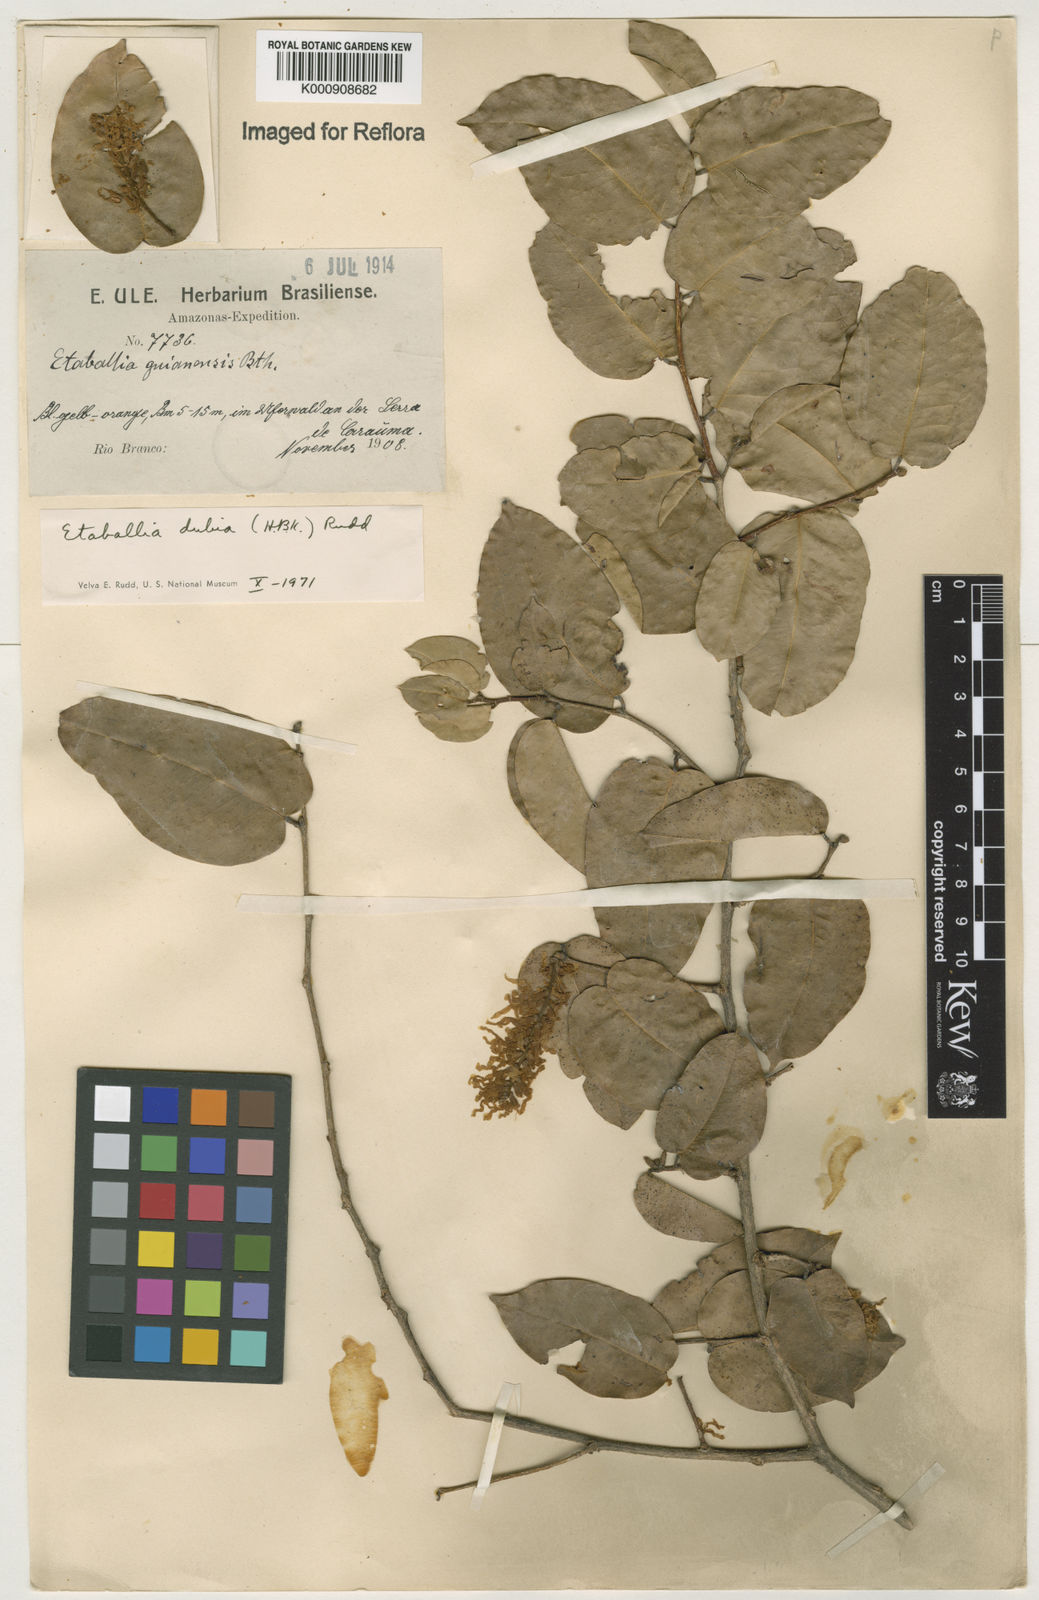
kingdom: Plantae
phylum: Tracheophyta
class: Magnoliopsida
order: Fabales
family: Fabaceae
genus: Pterocarpus
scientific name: Pterocarpus dubius
